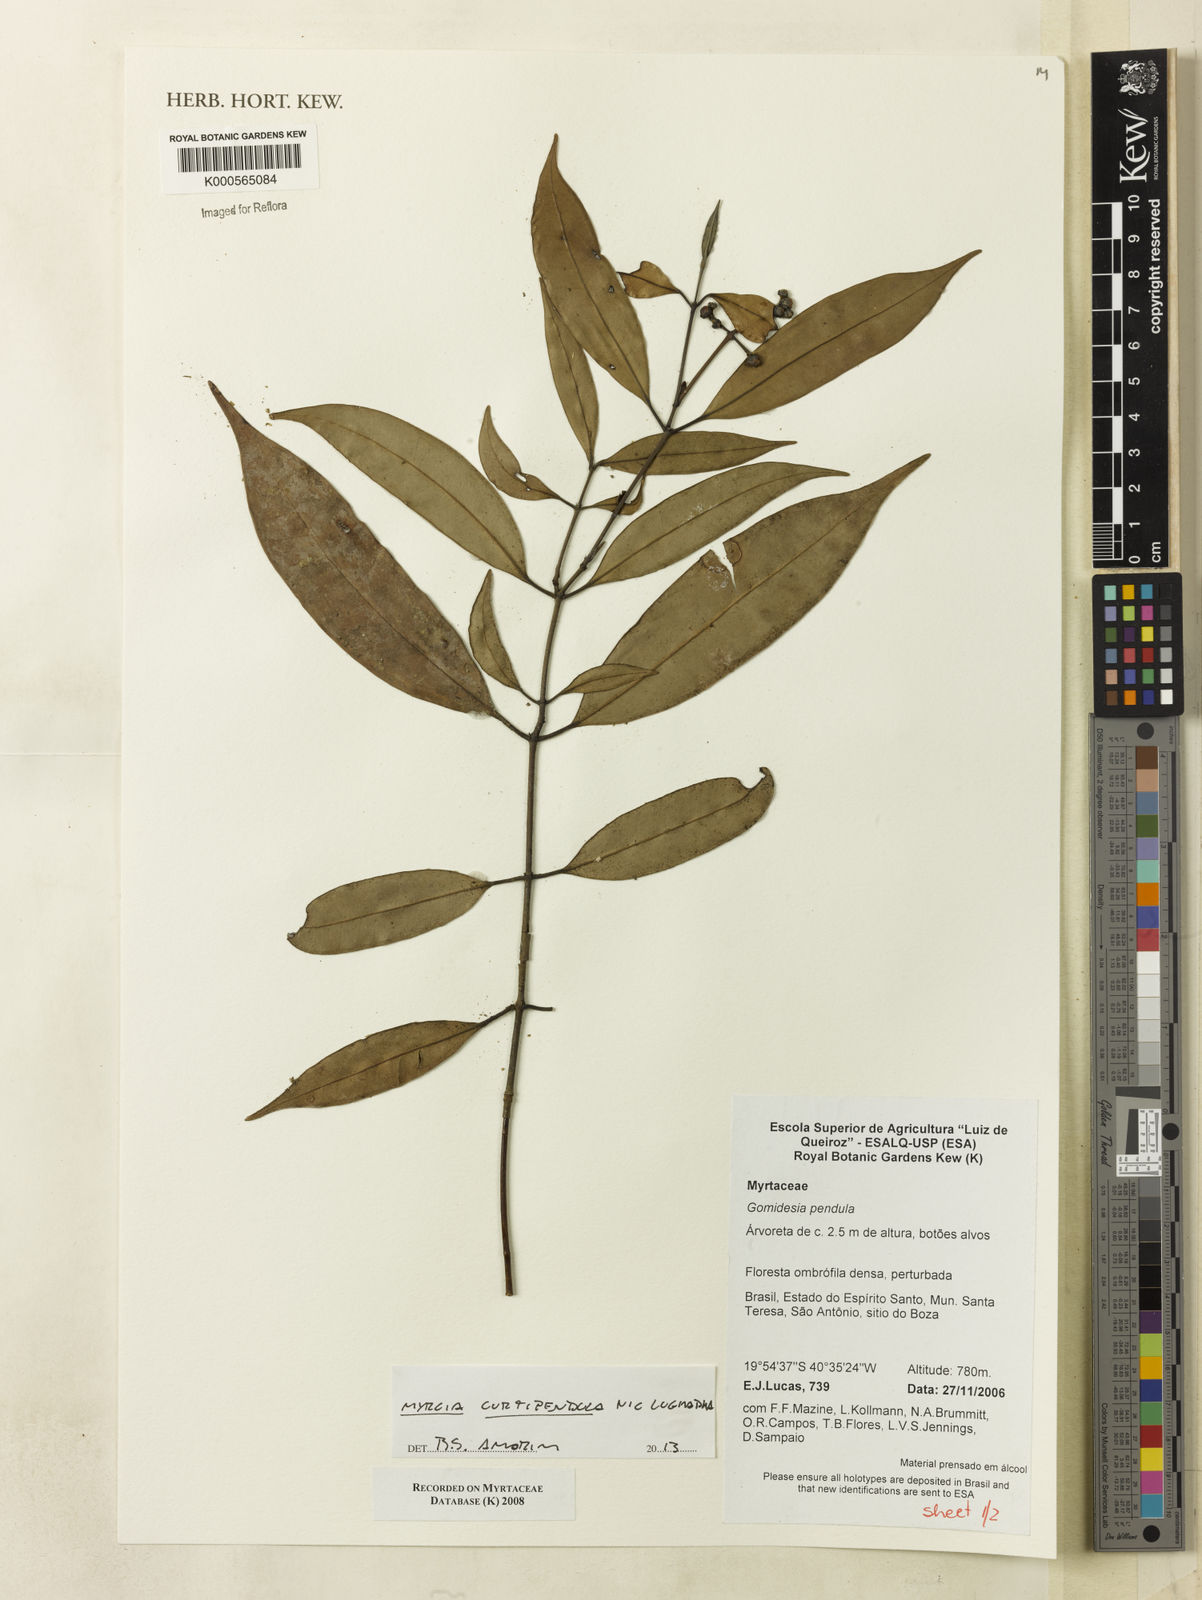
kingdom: Plantae
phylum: Tracheophyta
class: Magnoliopsida
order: Myrtales
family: Myrtaceae
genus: Myrcia
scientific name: Myrcia curtipendula
